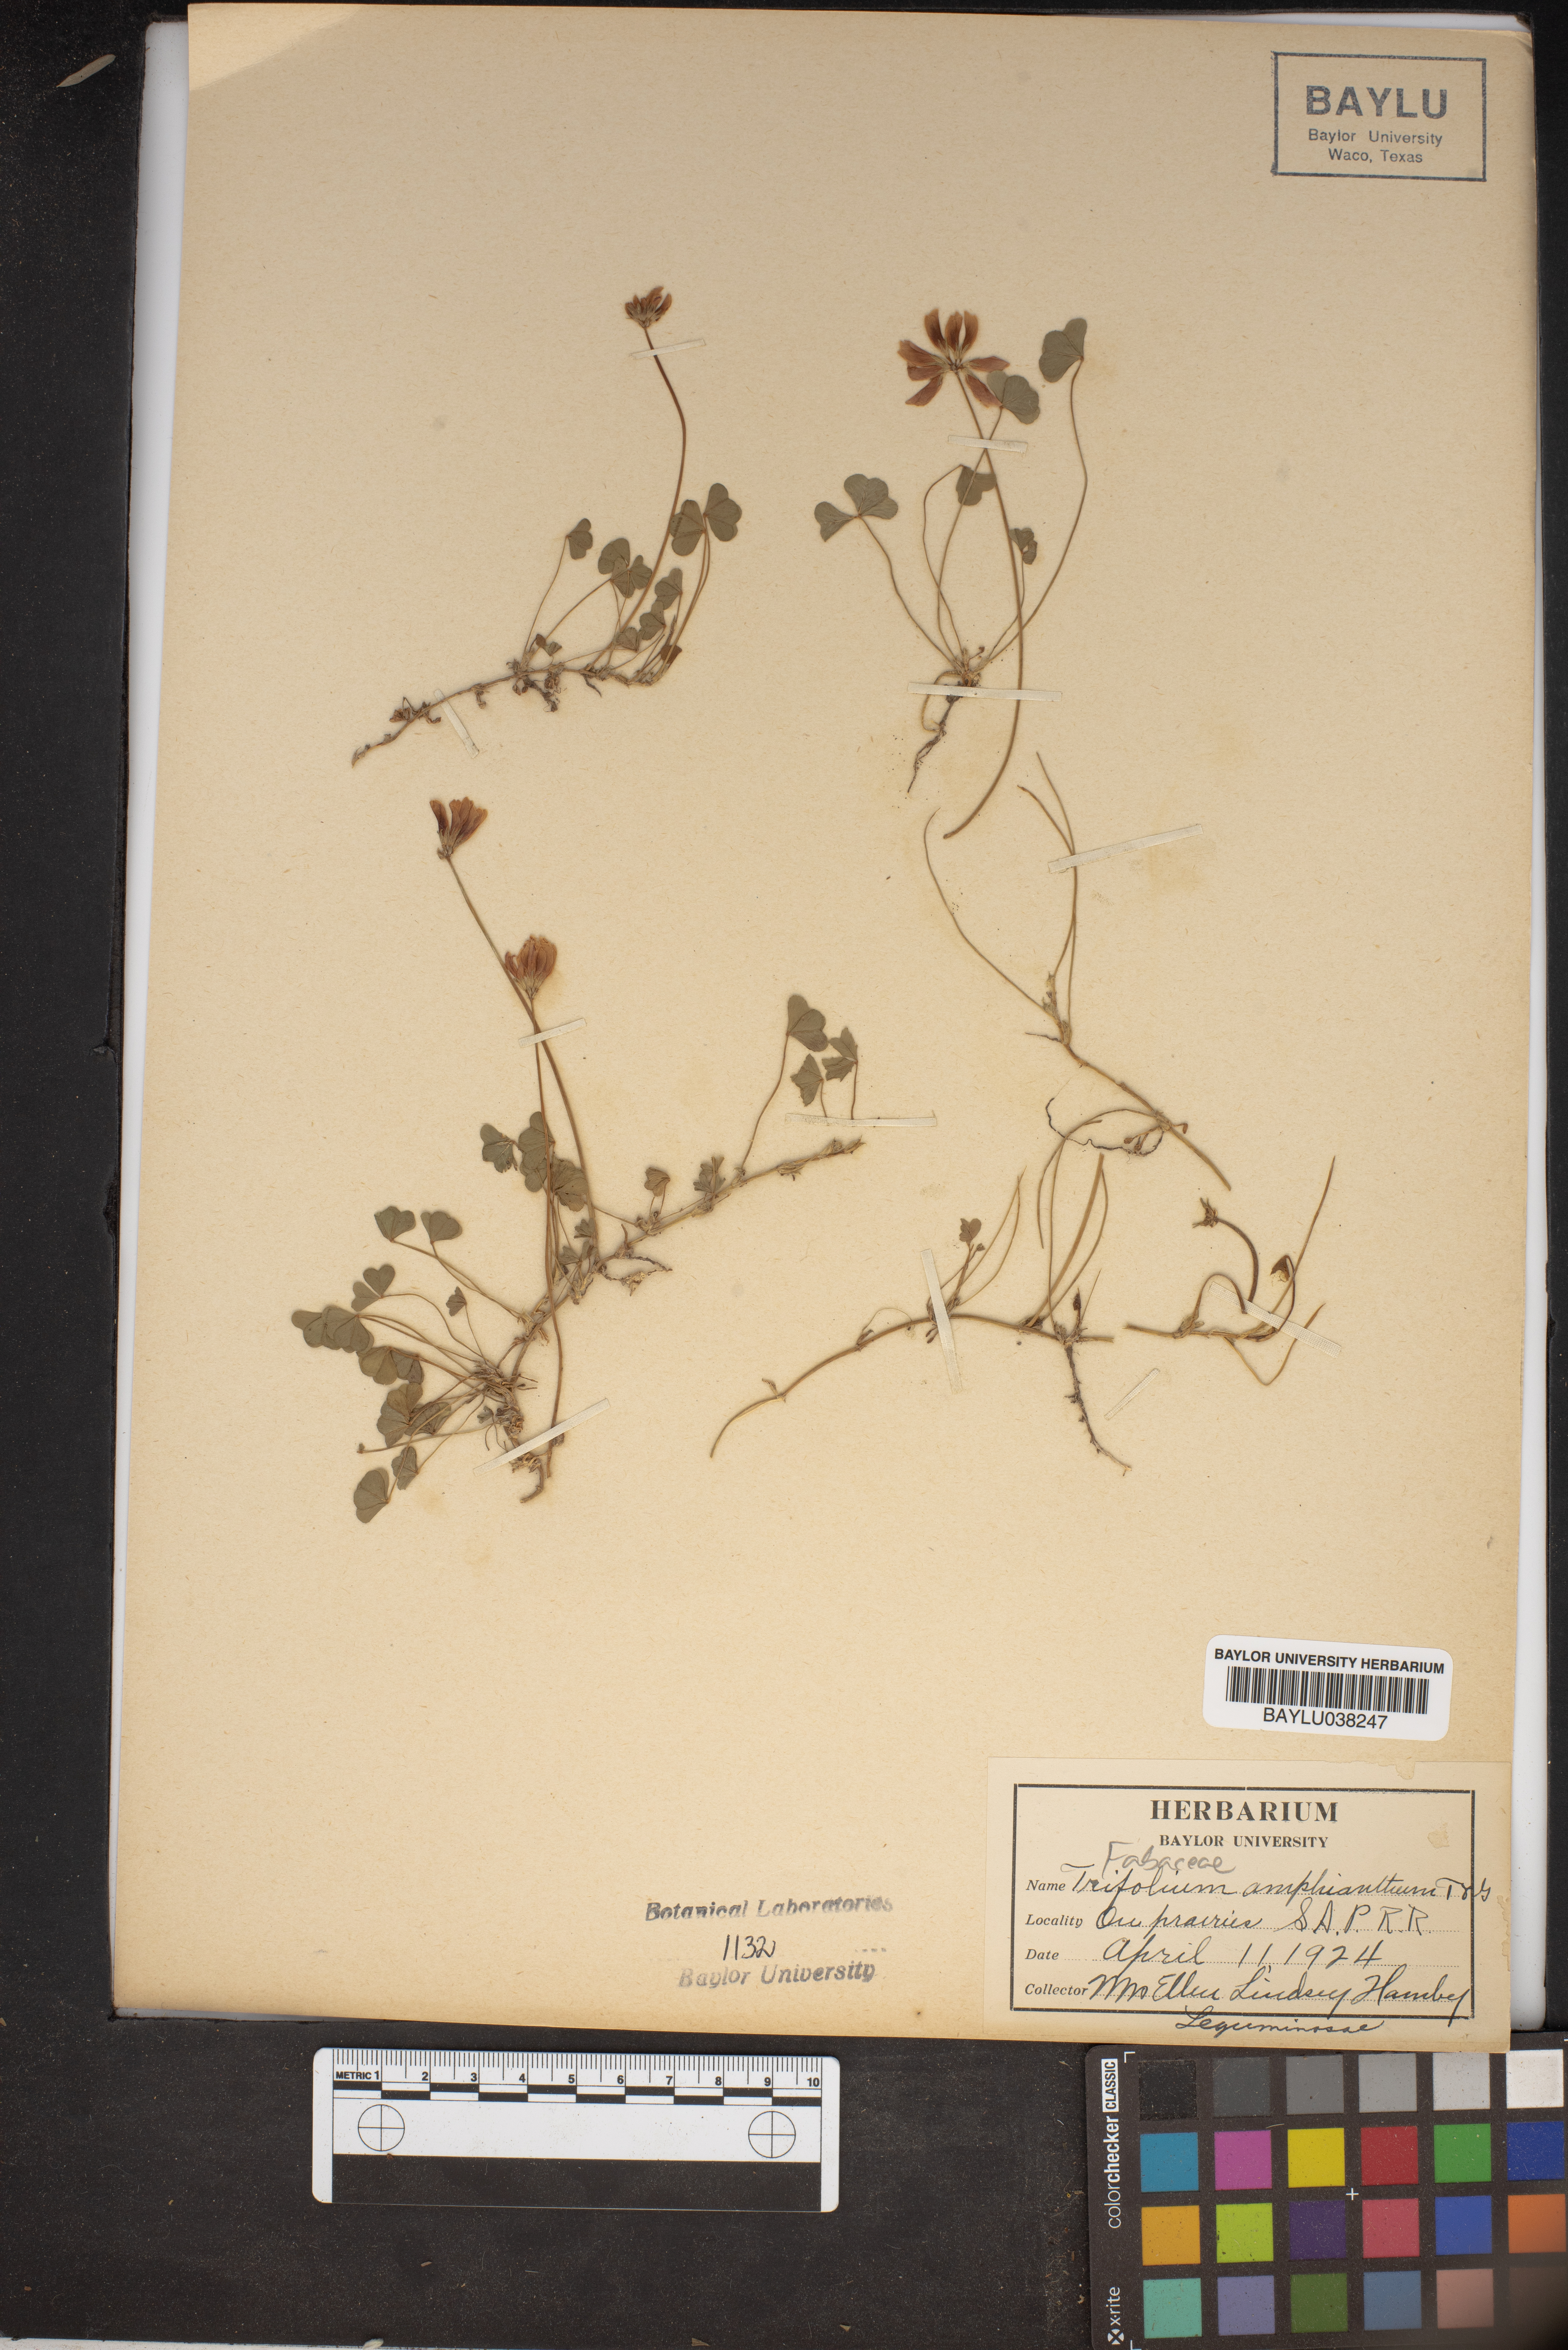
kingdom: Plantae
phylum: Tracheophyta
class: Magnoliopsida
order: Fabales
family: Fabaceae
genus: Trifolium
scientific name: Trifolium amphianthum
